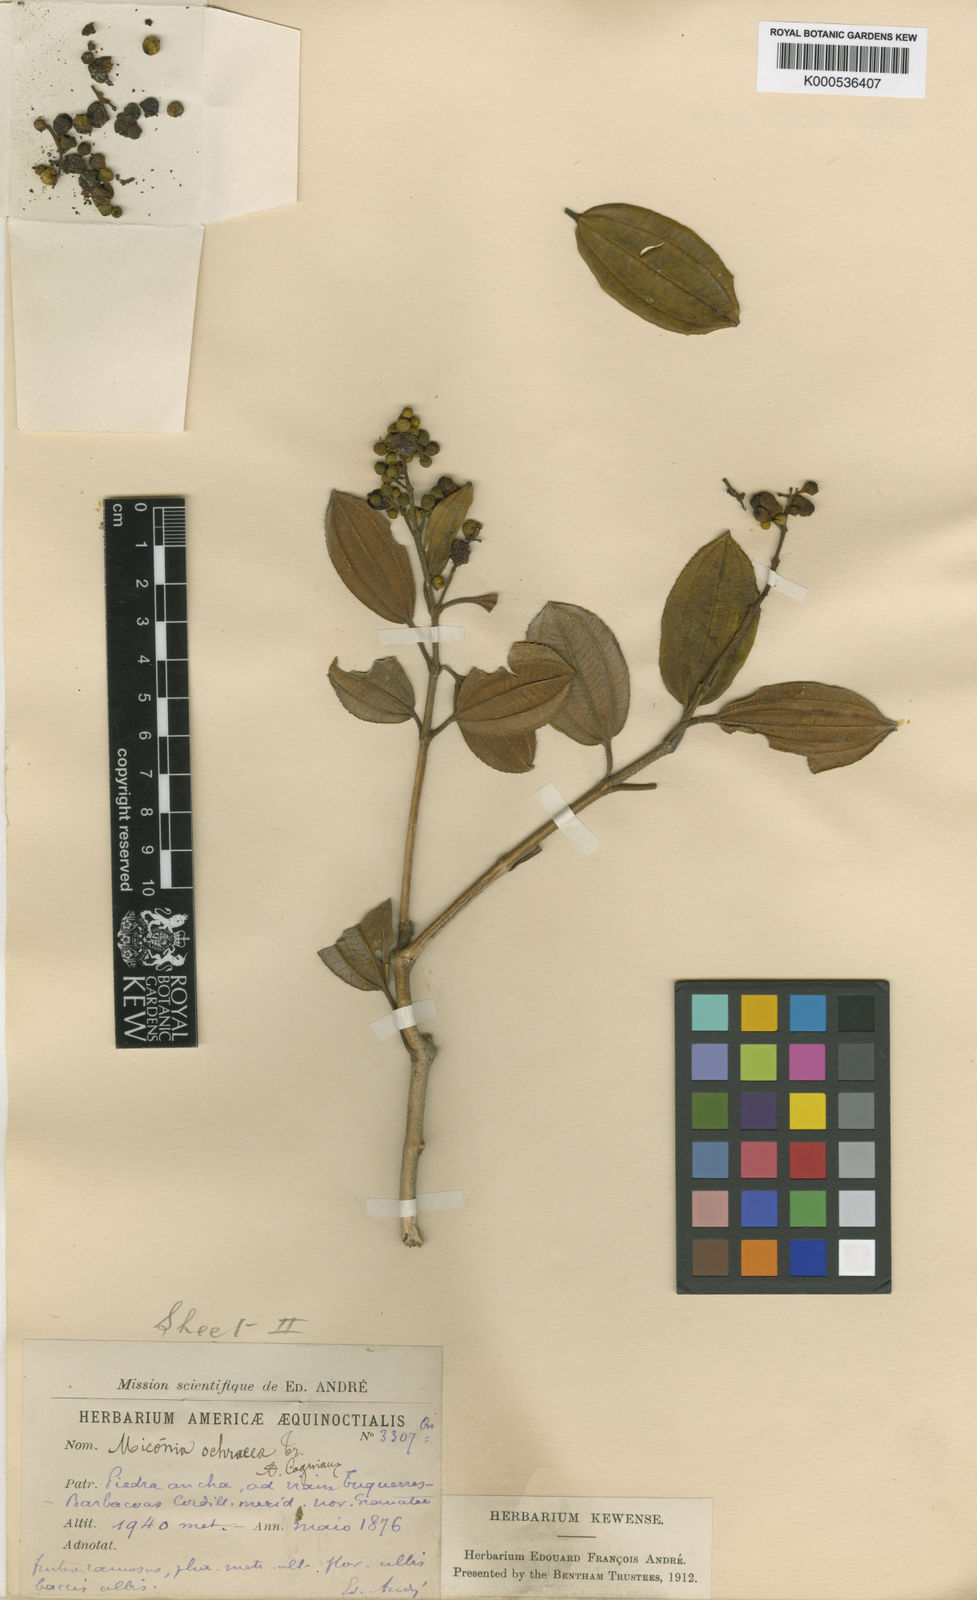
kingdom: Plantae
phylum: Tracheophyta
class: Magnoliopsida
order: Myrtales
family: Melastomataceae
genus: Miconia
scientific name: Miconia ochracea
